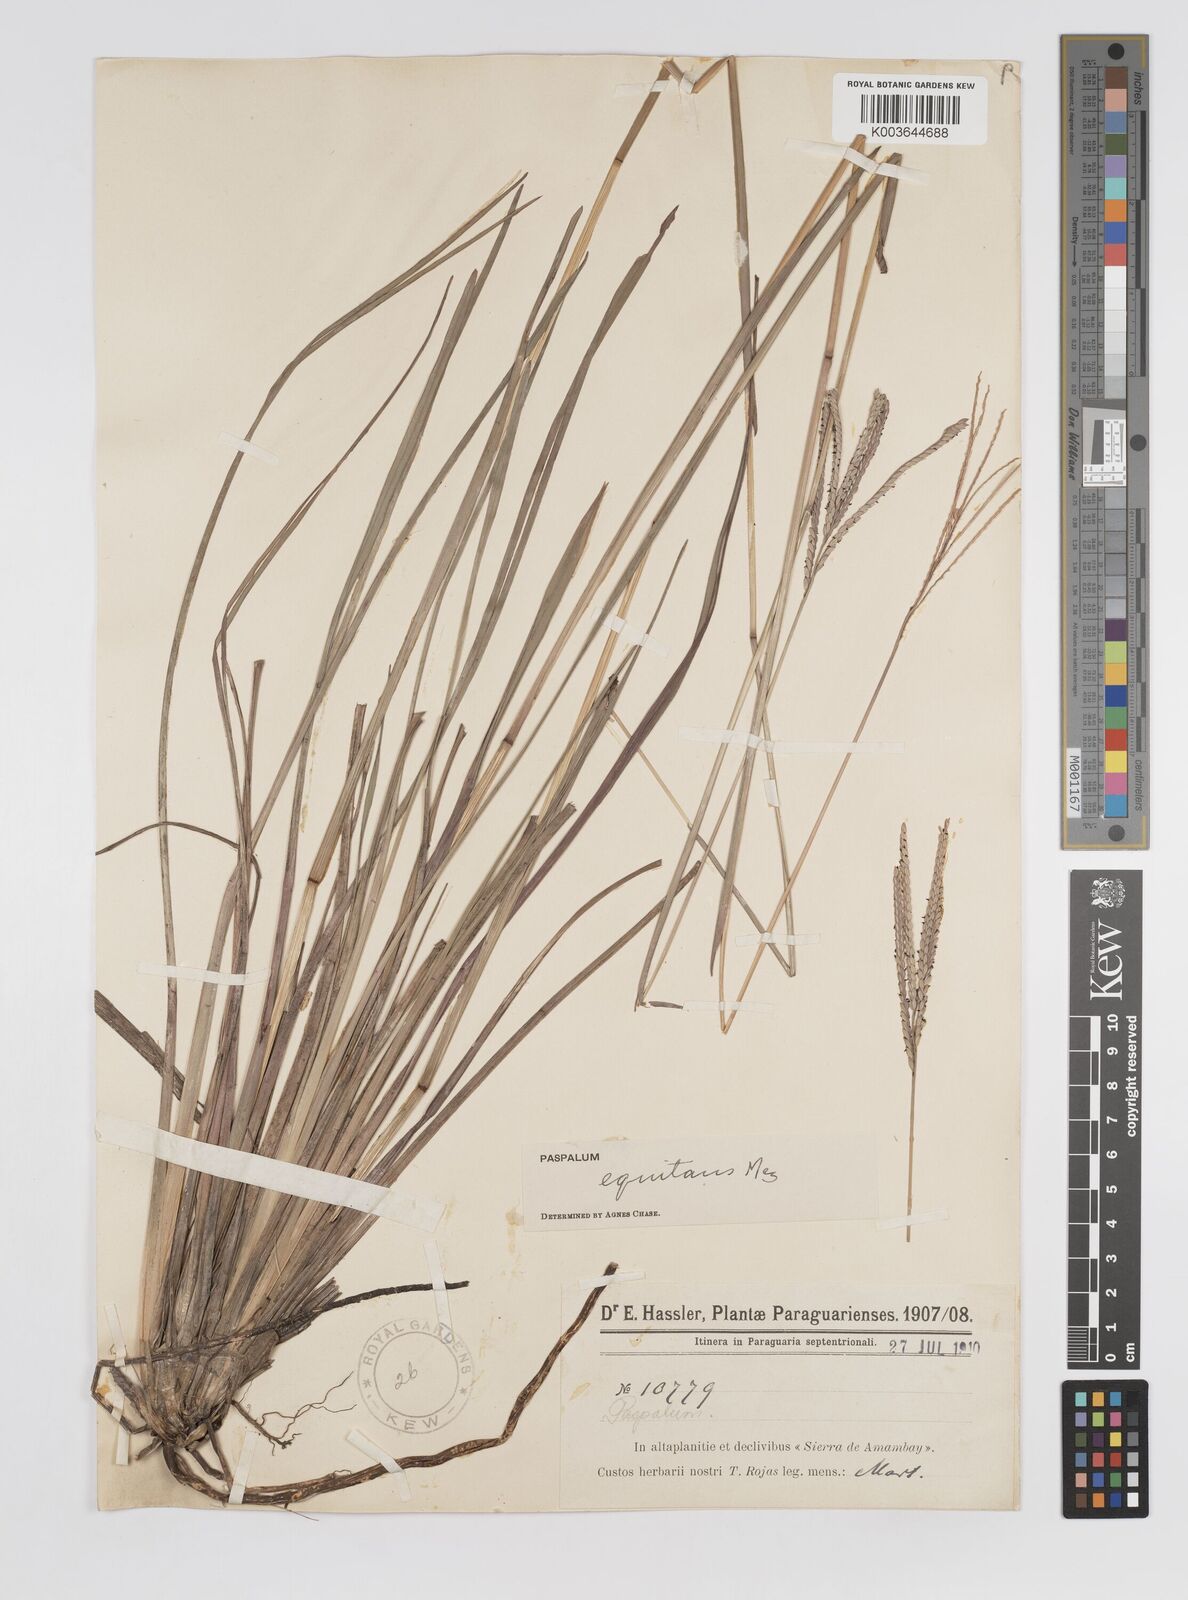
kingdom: Plantae
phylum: Tracheophyta
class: Liliopsida
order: Poales
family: Poaceae
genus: Paspalum
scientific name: Paspalum equitans
